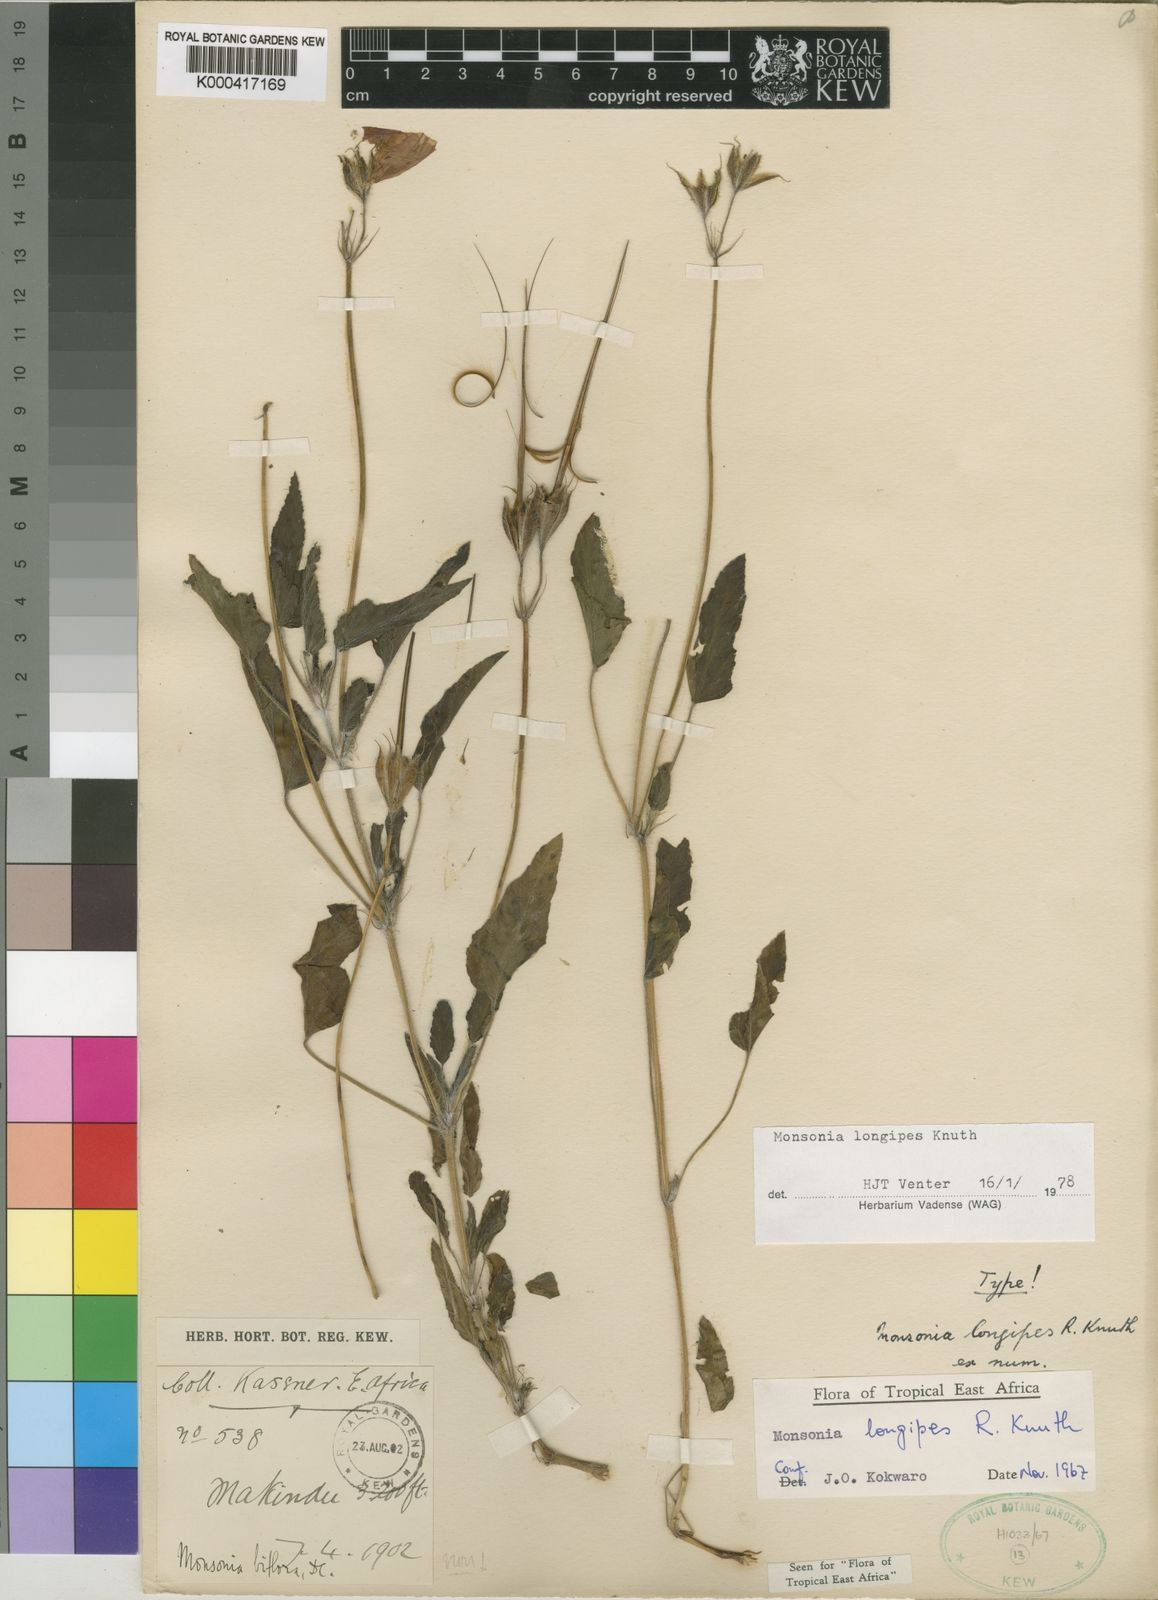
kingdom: Plantae
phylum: Tracheophyta
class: Magnoliopsida
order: Geraniales
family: Geraniaceae
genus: Monsonia
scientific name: Monsonia longipes
